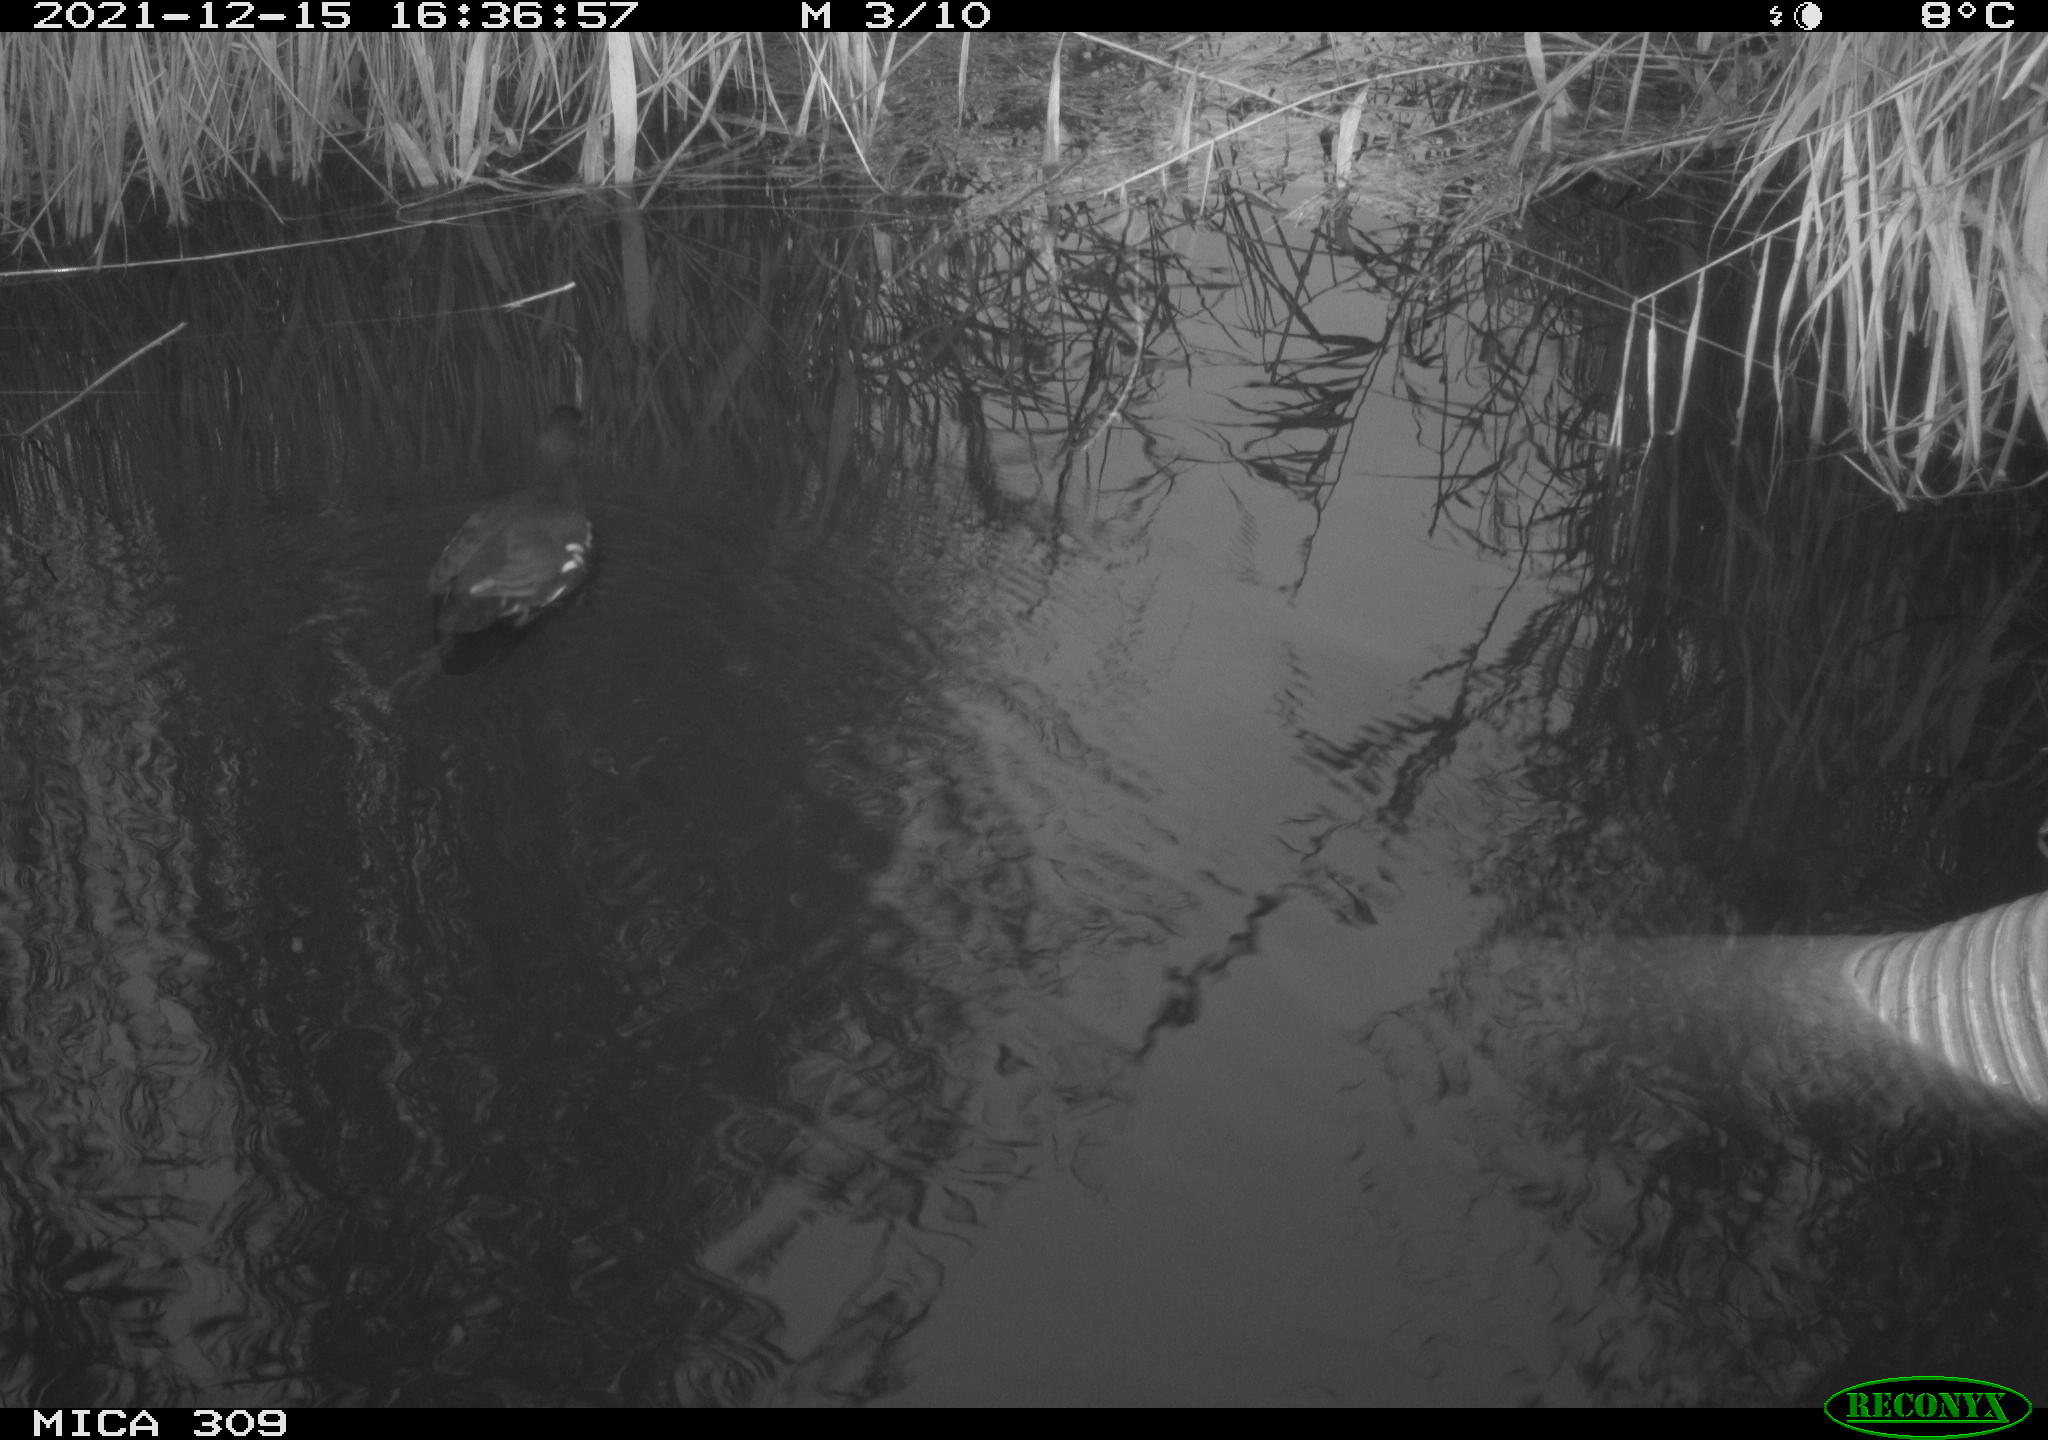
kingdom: Animalia
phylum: Chordata
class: Aves
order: Gruiformes
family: Rallidae
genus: Gallinula
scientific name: Gallinula chloropus
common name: Common moorhen
